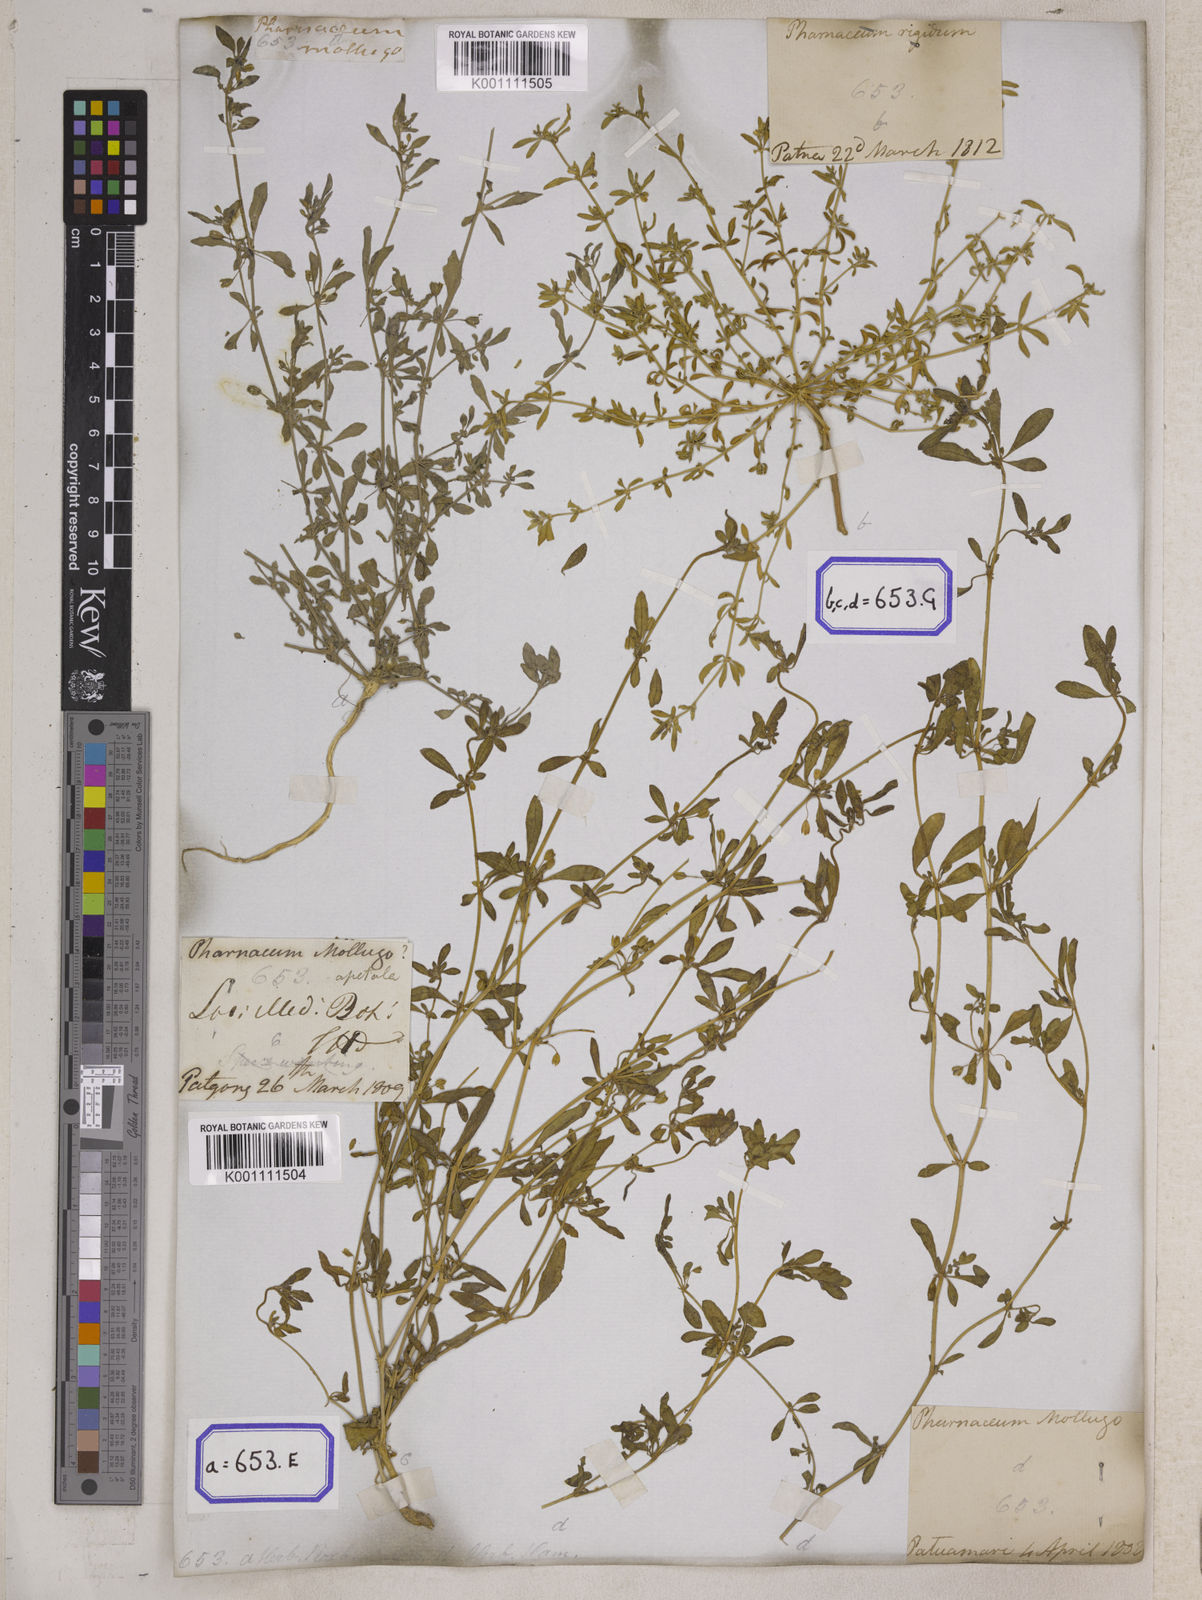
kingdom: Plantae
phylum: Tracheophyta
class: Magnoliopsida
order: Caryophyllales
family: Molluginaceae
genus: Glinus
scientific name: Glinus oppositifolius
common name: Slender carpetweed
